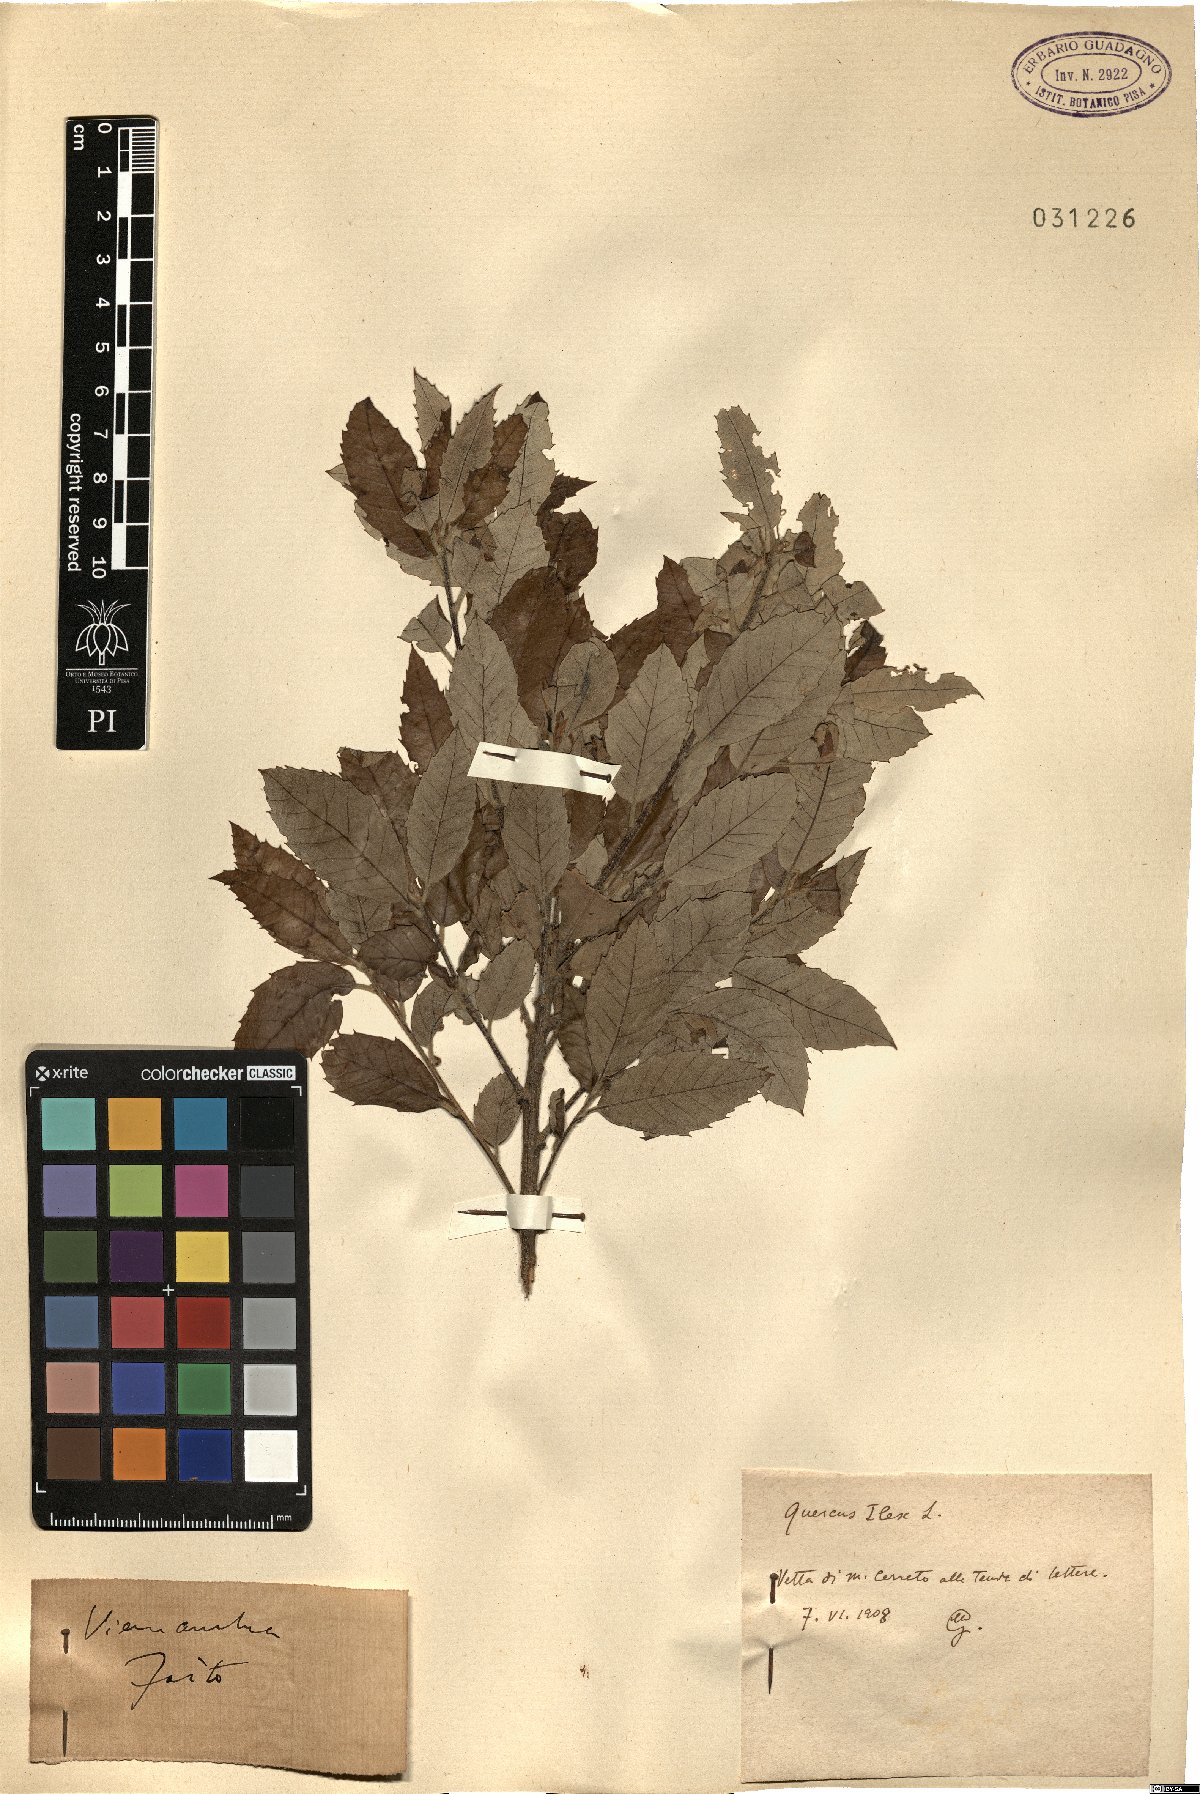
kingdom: Plantae
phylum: Tracheophyta
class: Magnoliopsida
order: Fagales
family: Fagaceae
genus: Quercus
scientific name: Quercus ilex
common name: Evergreen oak
